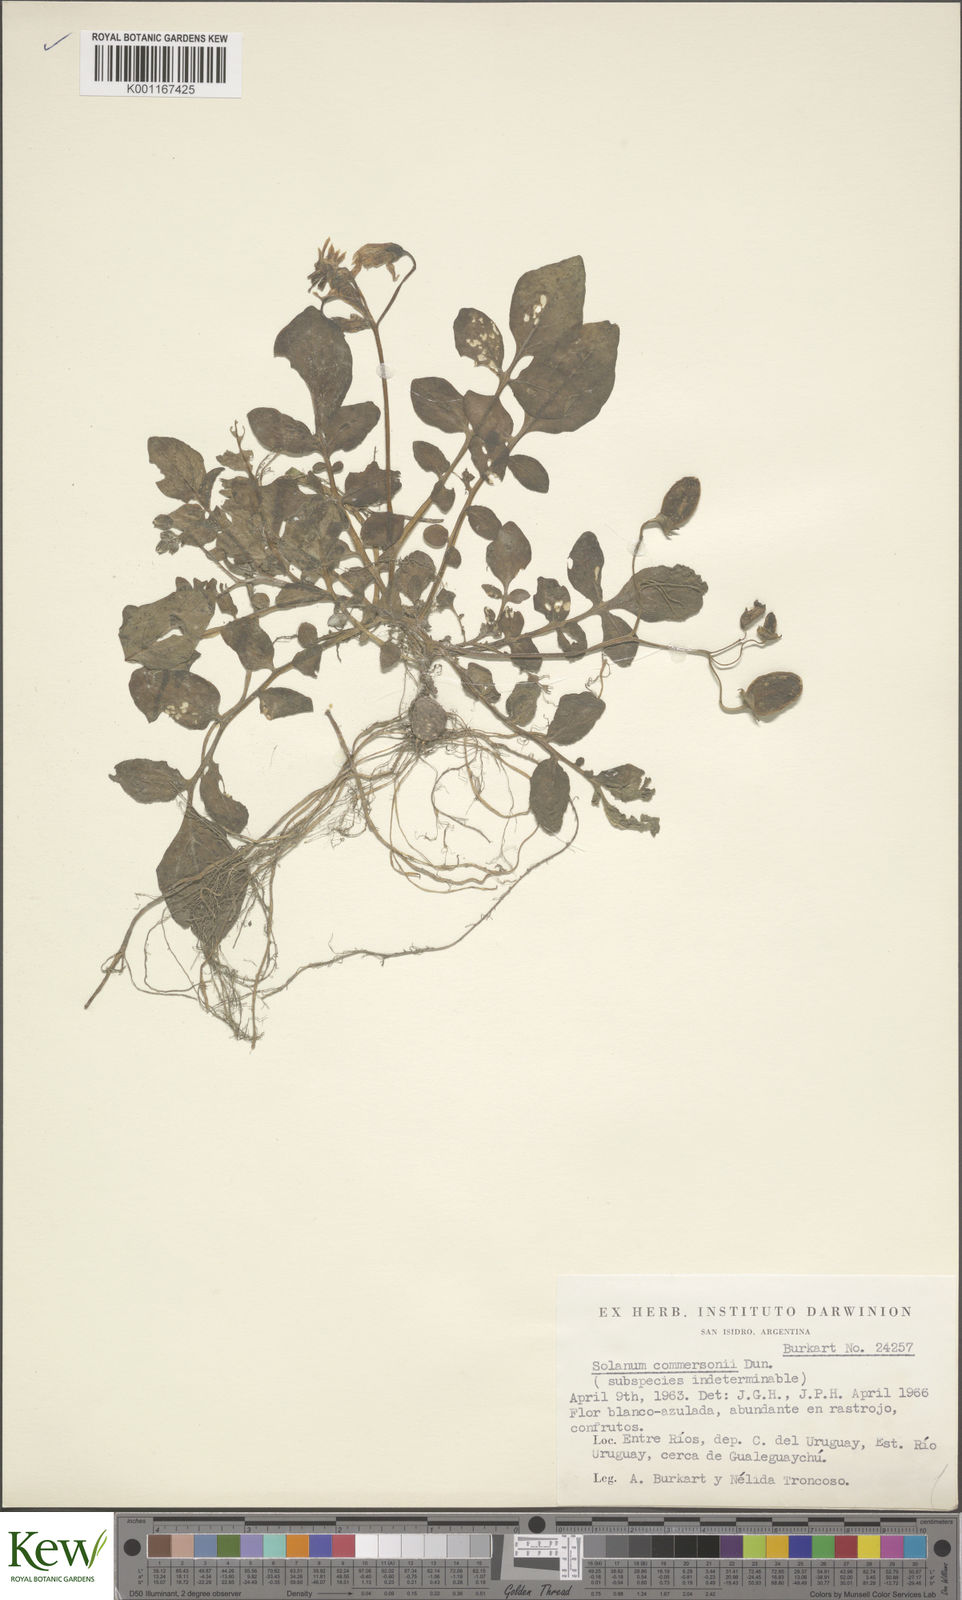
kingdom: Plantae
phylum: Tracheophyta
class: Magnoliopsida
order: Solanales
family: Solanaceae
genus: Solanum
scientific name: Solanum commersonii
